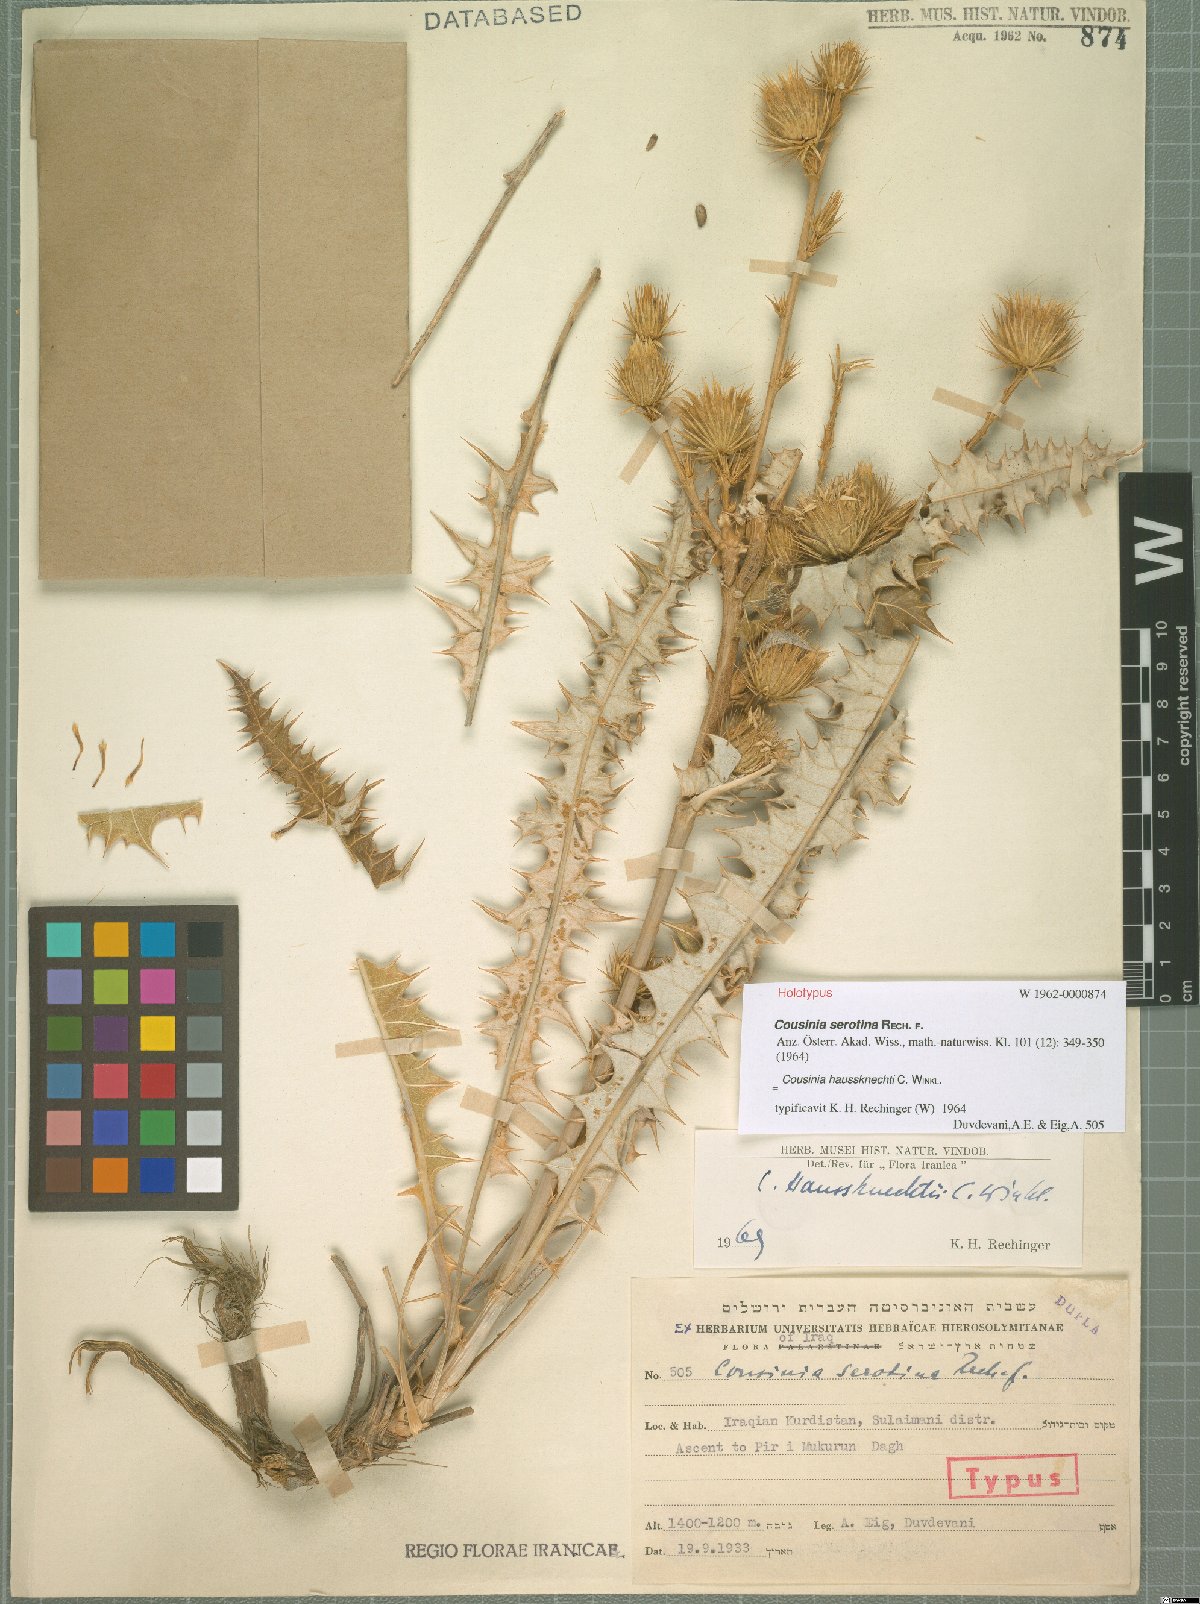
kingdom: Plantae
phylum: Tracheophyta
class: Magnoliopsida
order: Asterales
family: Asteraceae
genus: Cousinia
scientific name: Cousinia haussknechtii
